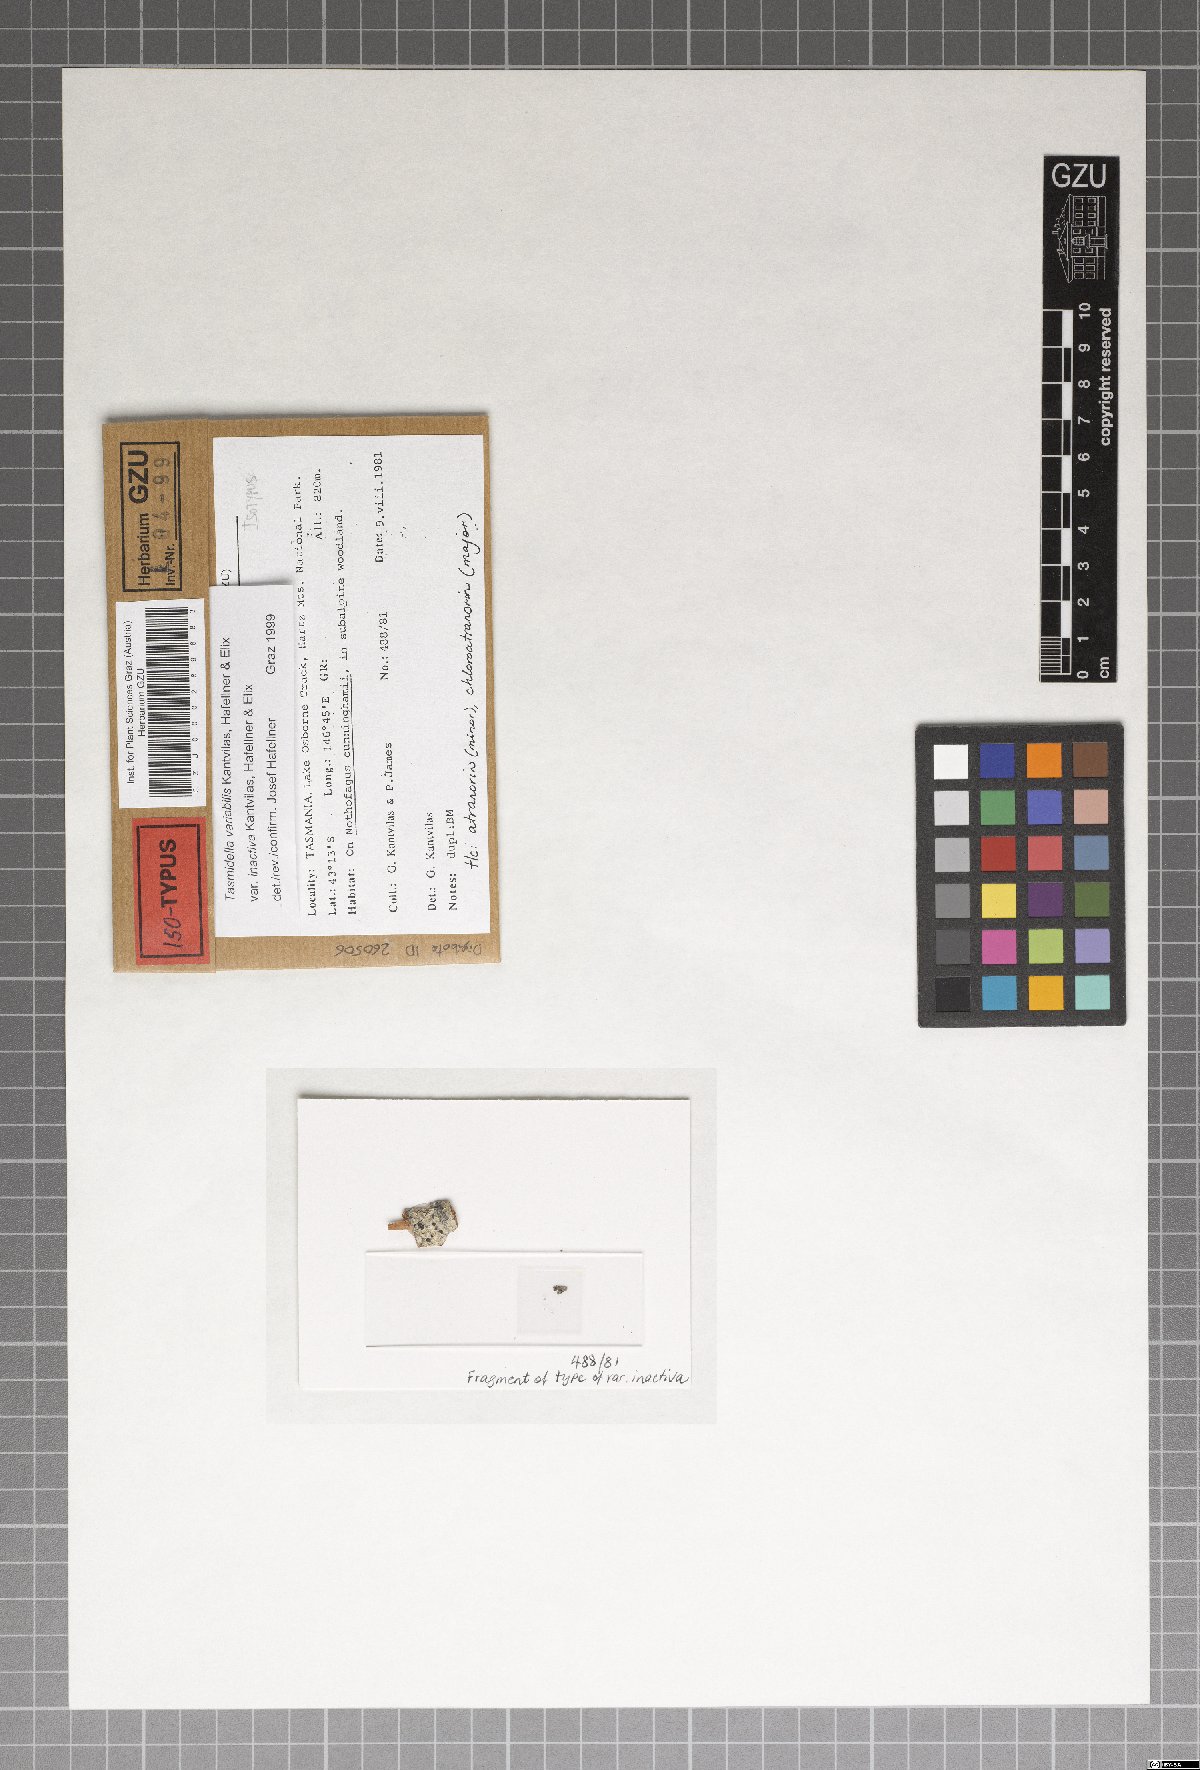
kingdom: Fungi
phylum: Ascomycota
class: Lecanoromycetes
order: Lecanorales
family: Ramalinaceae
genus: Tasmidella
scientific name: Tasmidella variabilis
